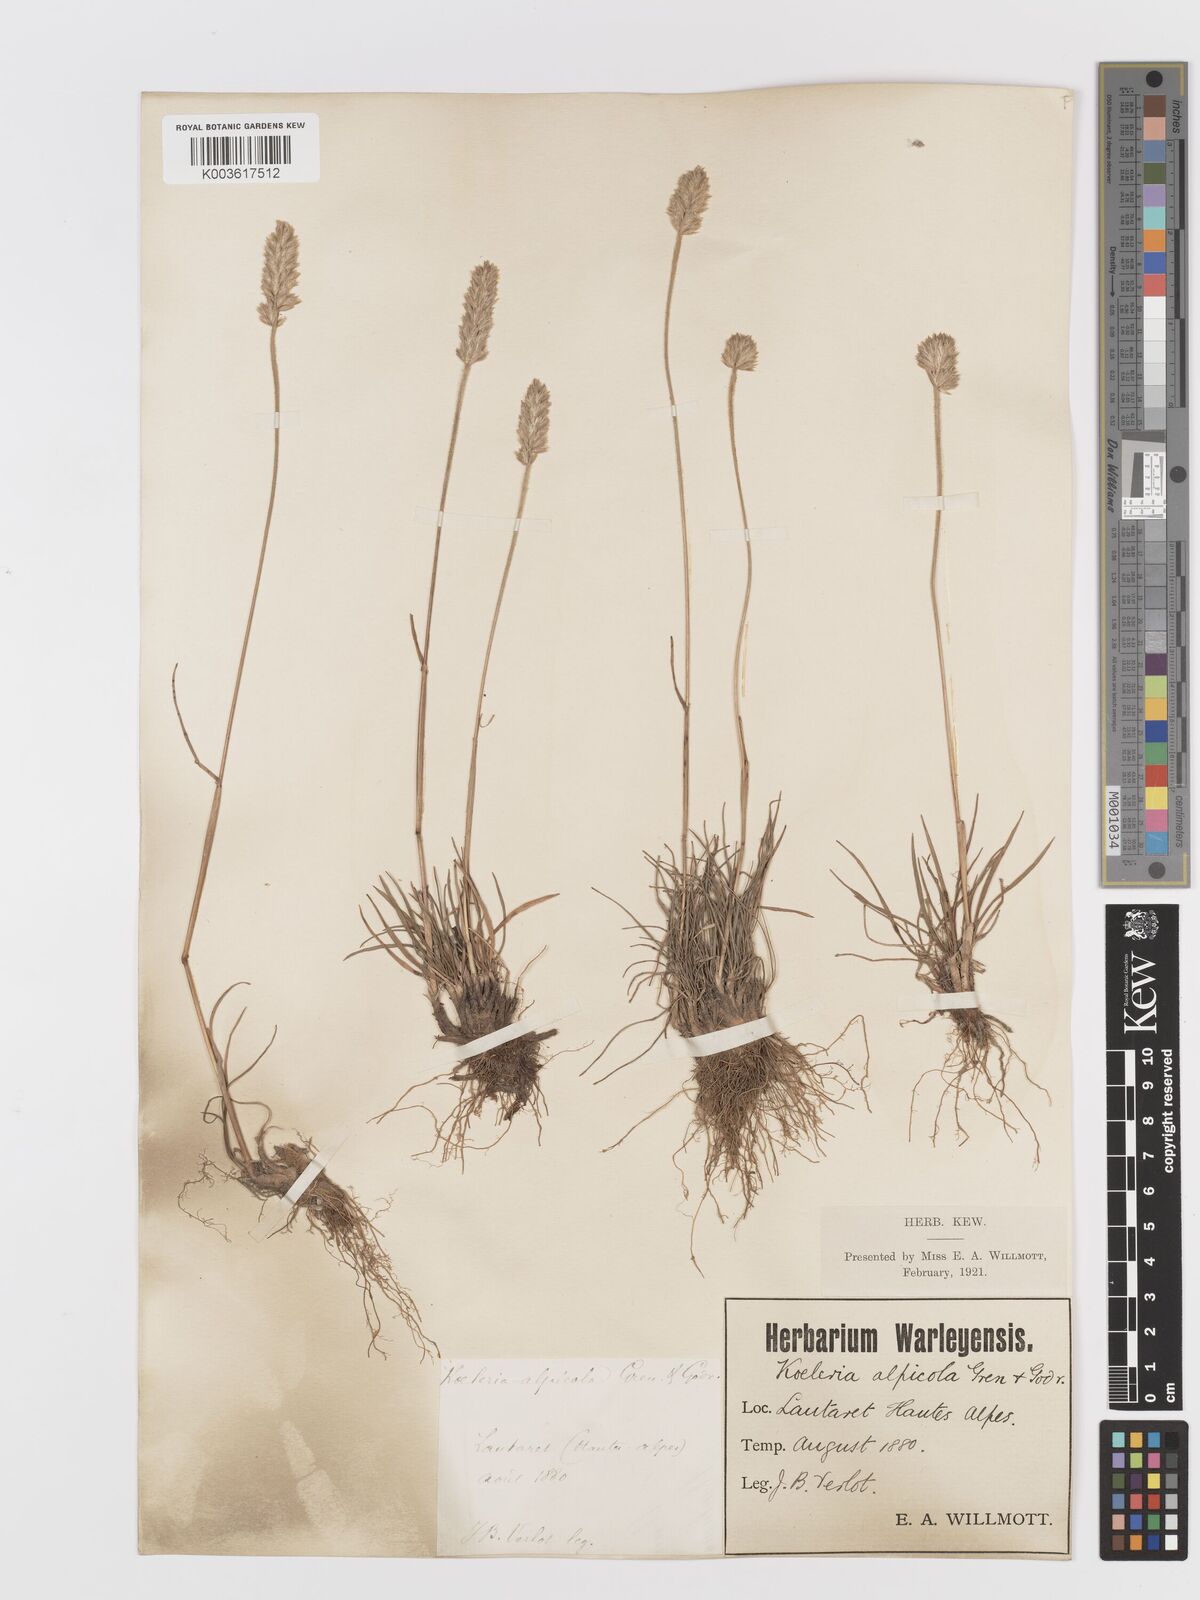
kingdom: Plantae
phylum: Tracheophyta
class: Liliopsida
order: Poales
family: Poaceae
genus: Koeleria
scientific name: Koeleria
